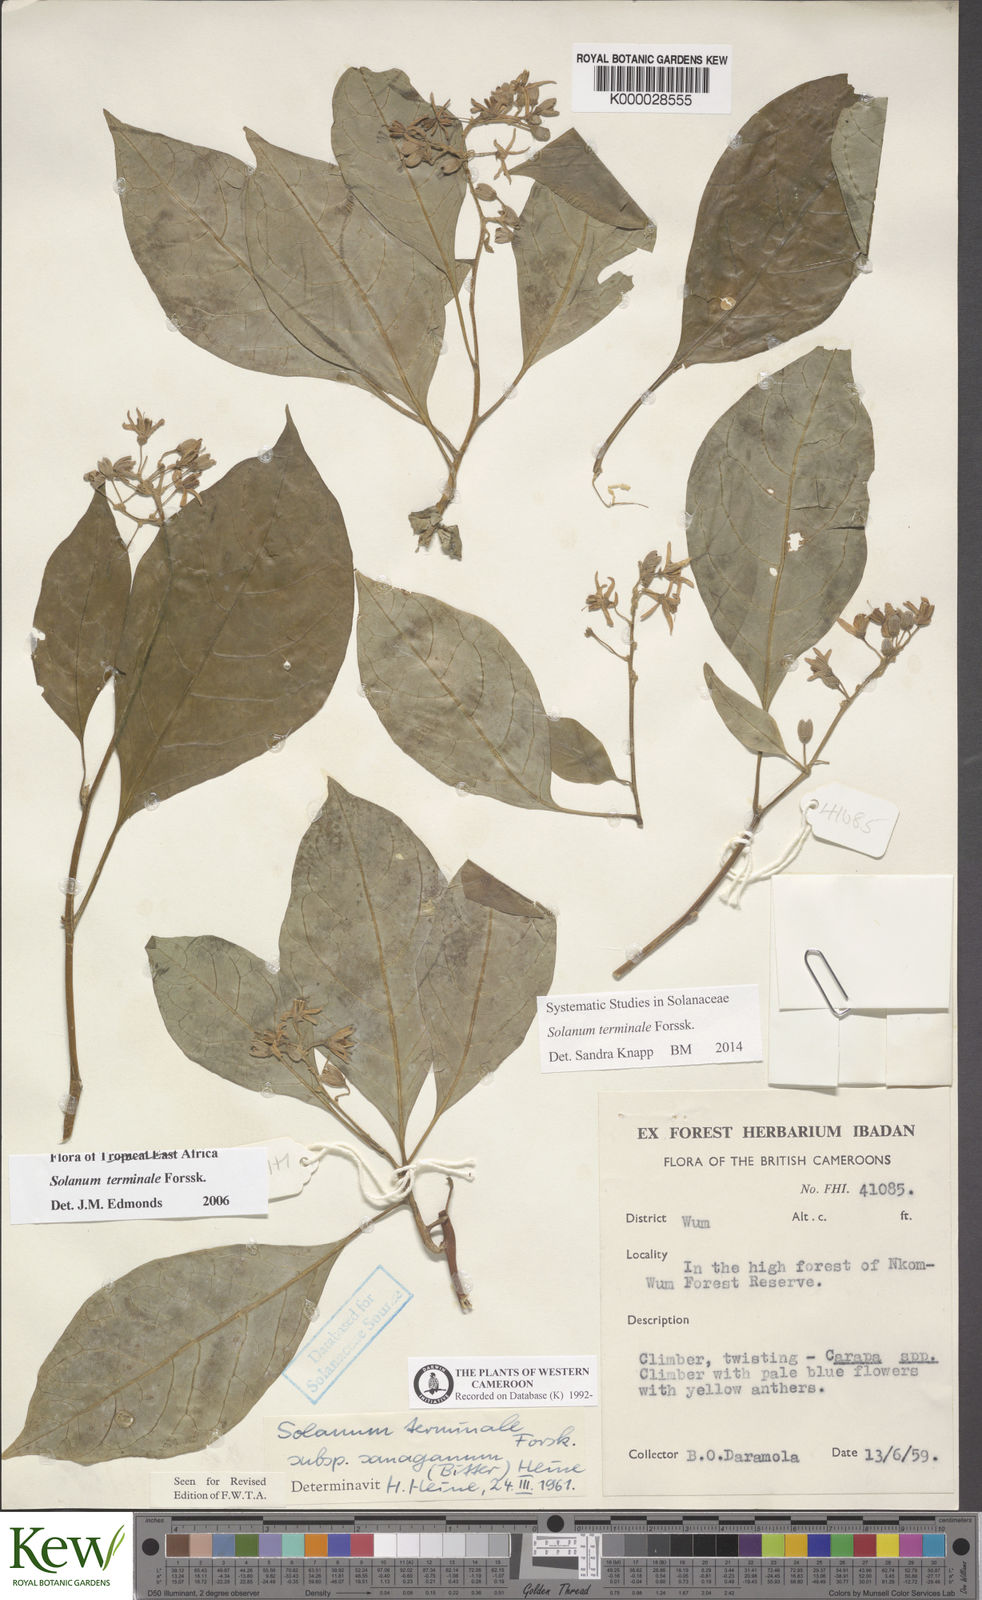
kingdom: Plantae
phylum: Tracheophyta
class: Magnoliopsida
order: Solanales
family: Solanaceae
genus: Solanum
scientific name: Solanum terminale
